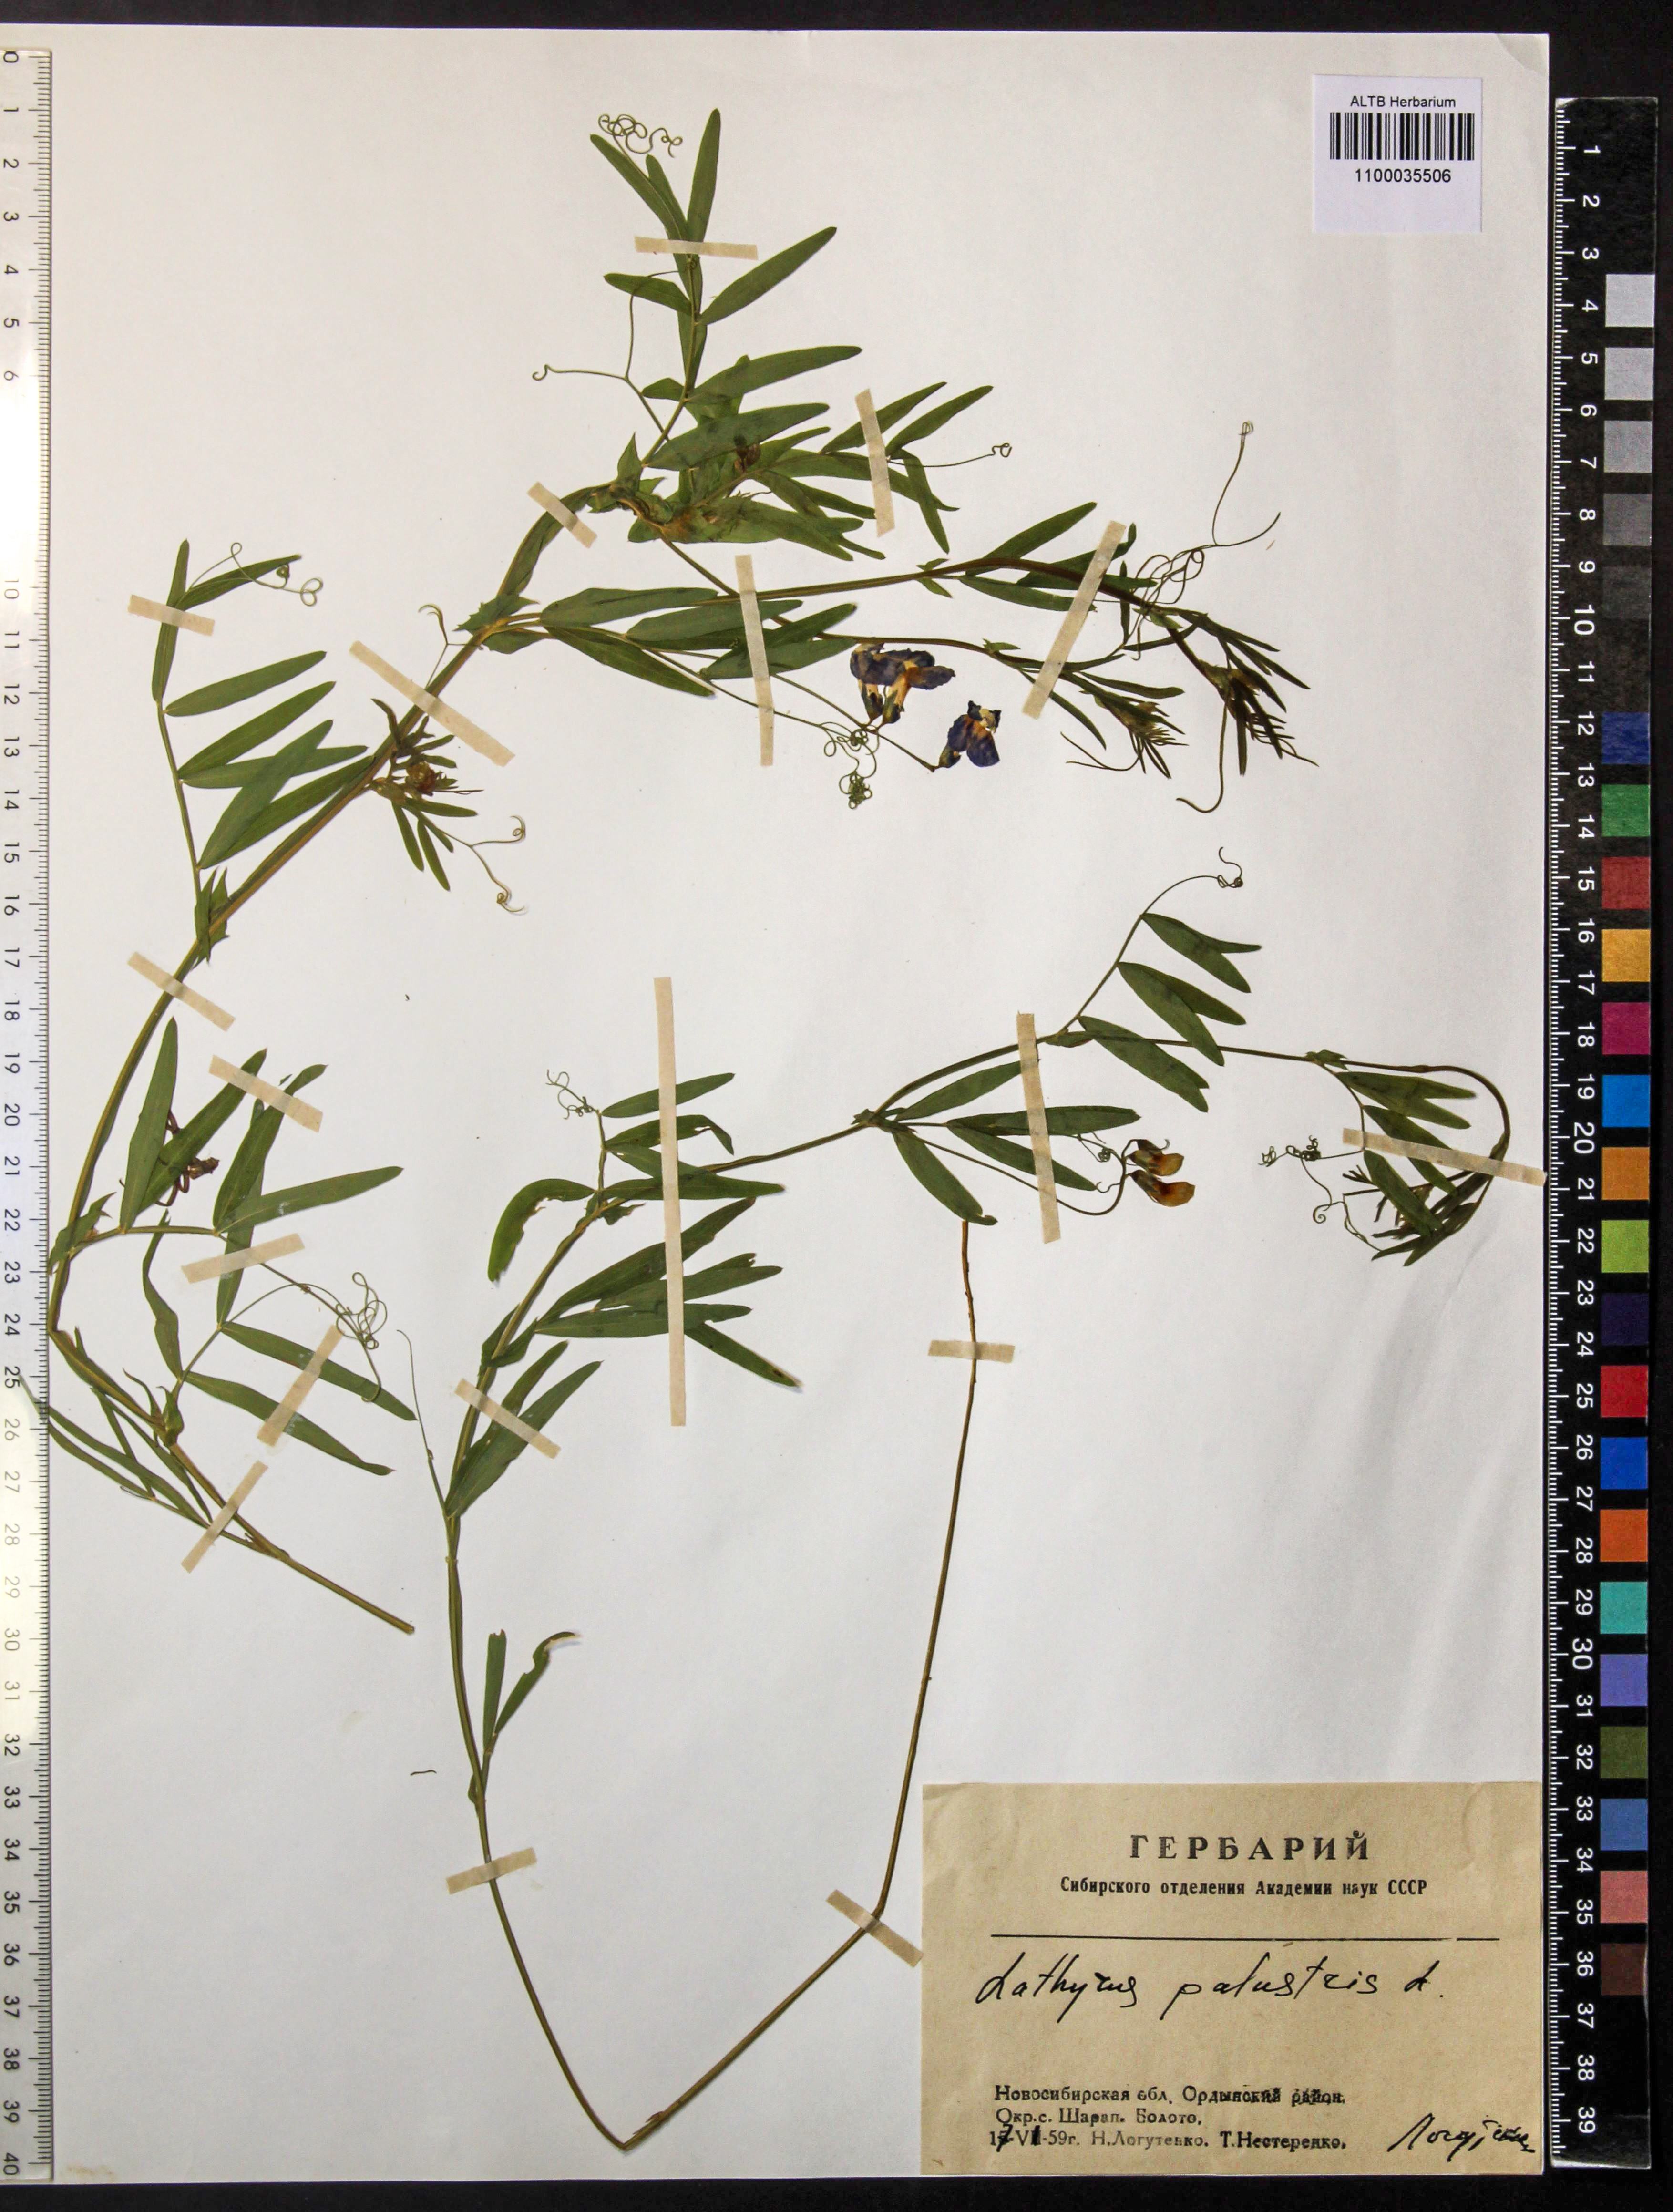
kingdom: Plantae
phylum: Tracheophyta
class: Magnoliopsida
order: Fabales
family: Fabaceae
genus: Lathyrus
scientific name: Lathyrus palustris
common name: Marsh pea
